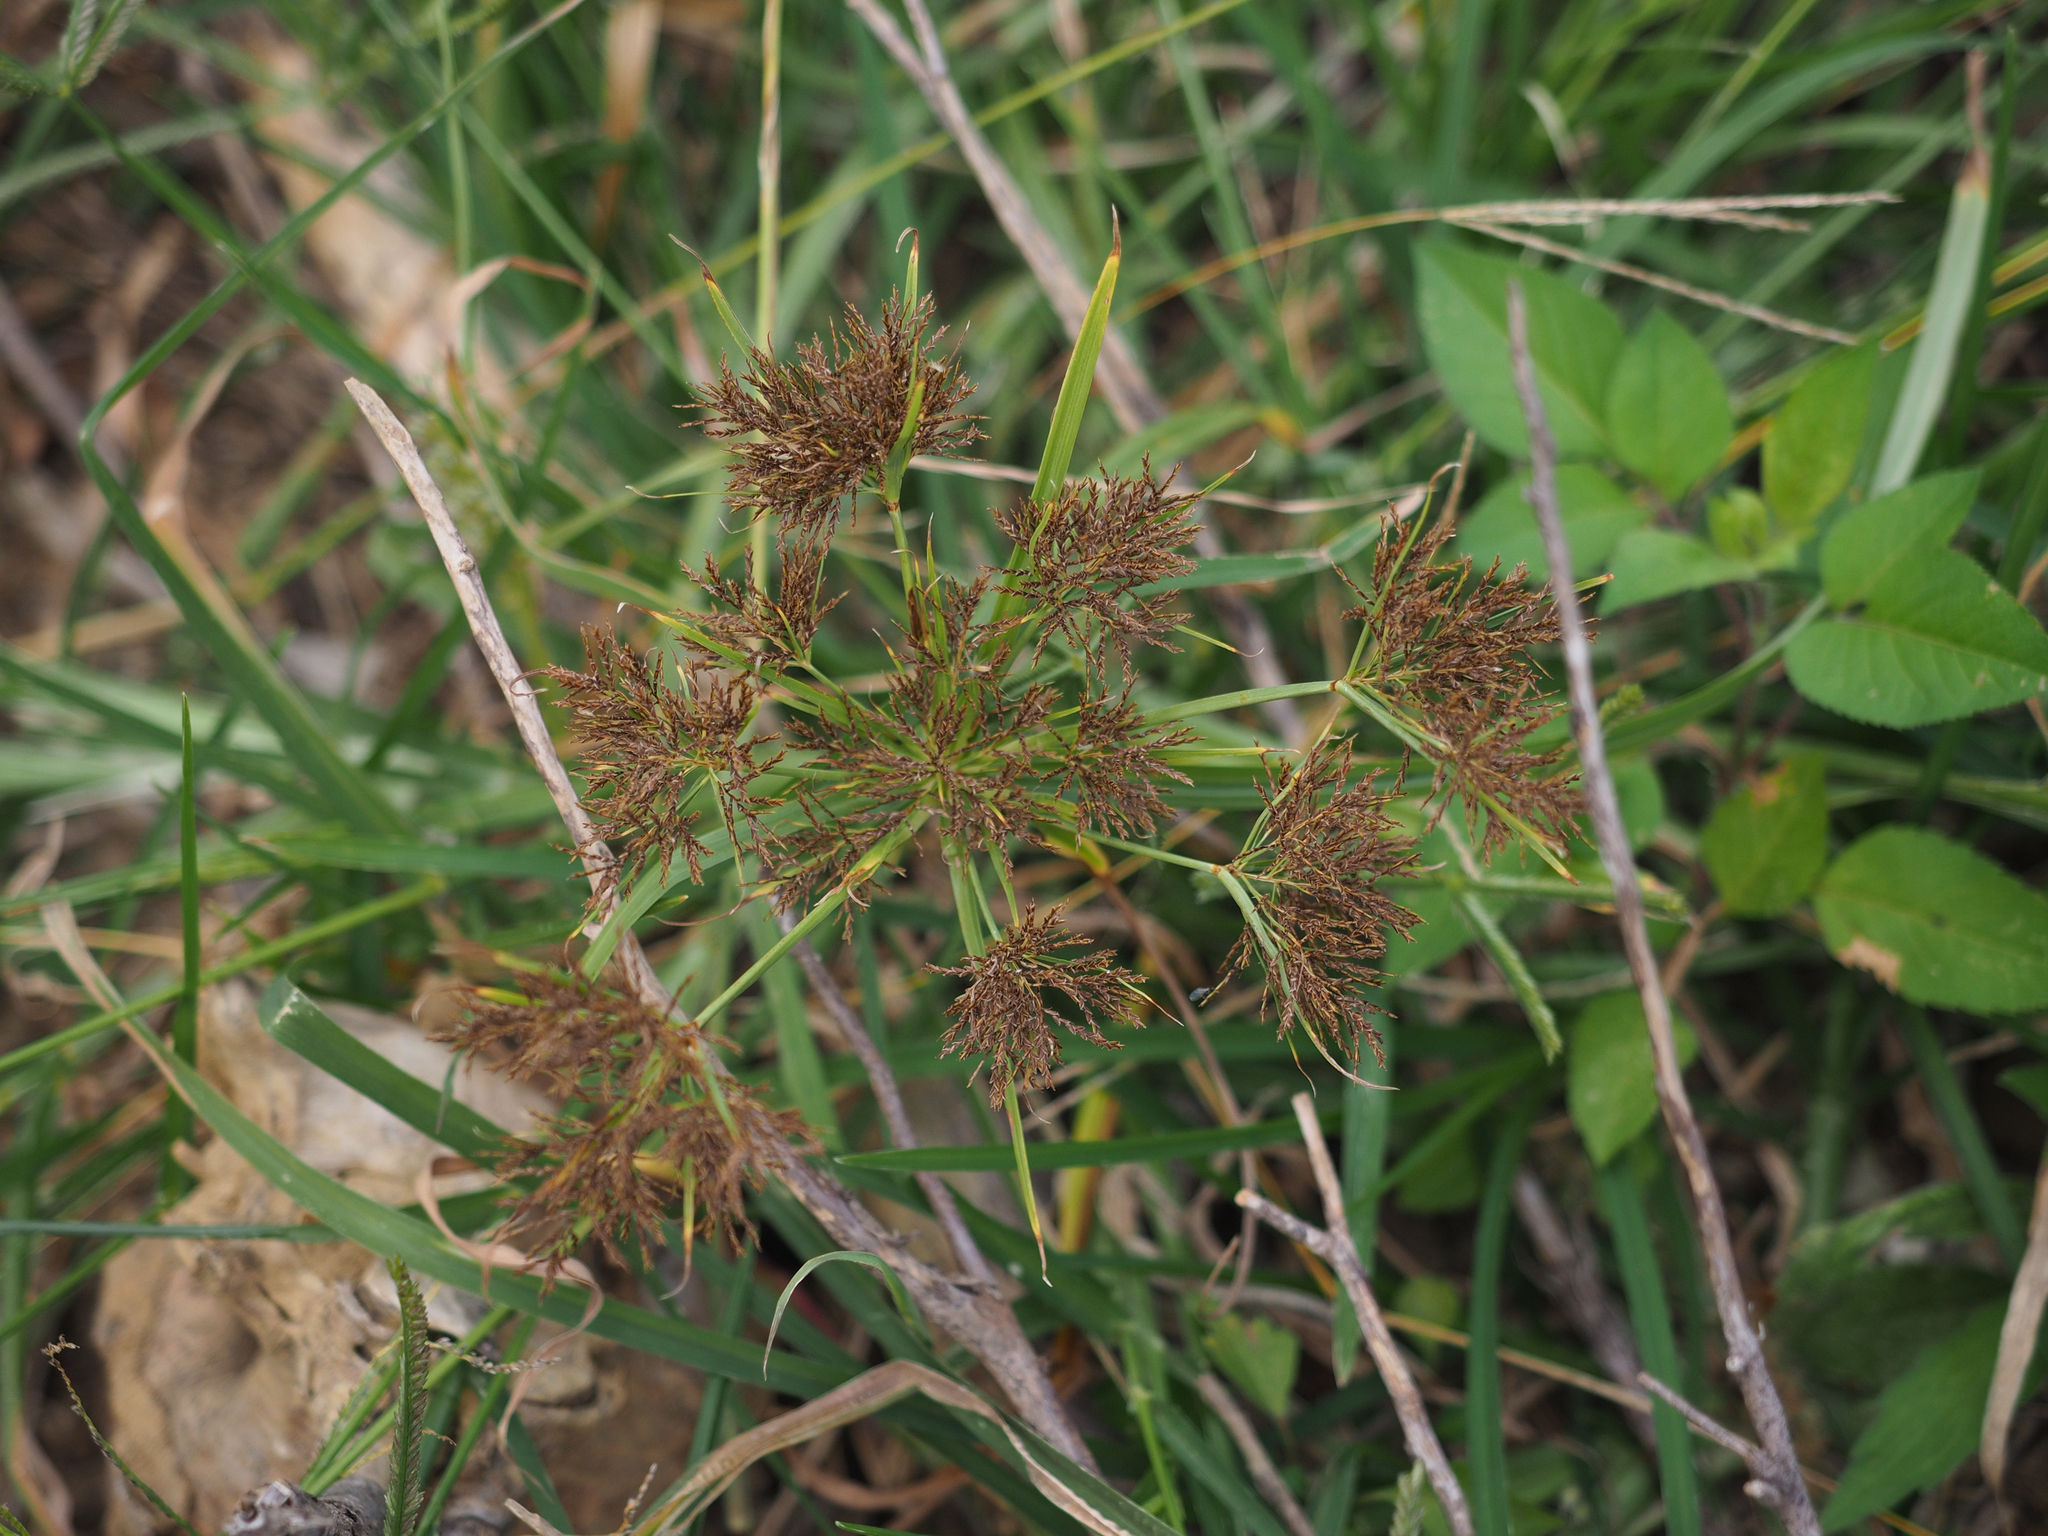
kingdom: Plantae
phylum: Tracheophyta
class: Liliopsida
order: Poales
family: Cyperaceae
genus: Cyperus
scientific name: Cyperus distans
